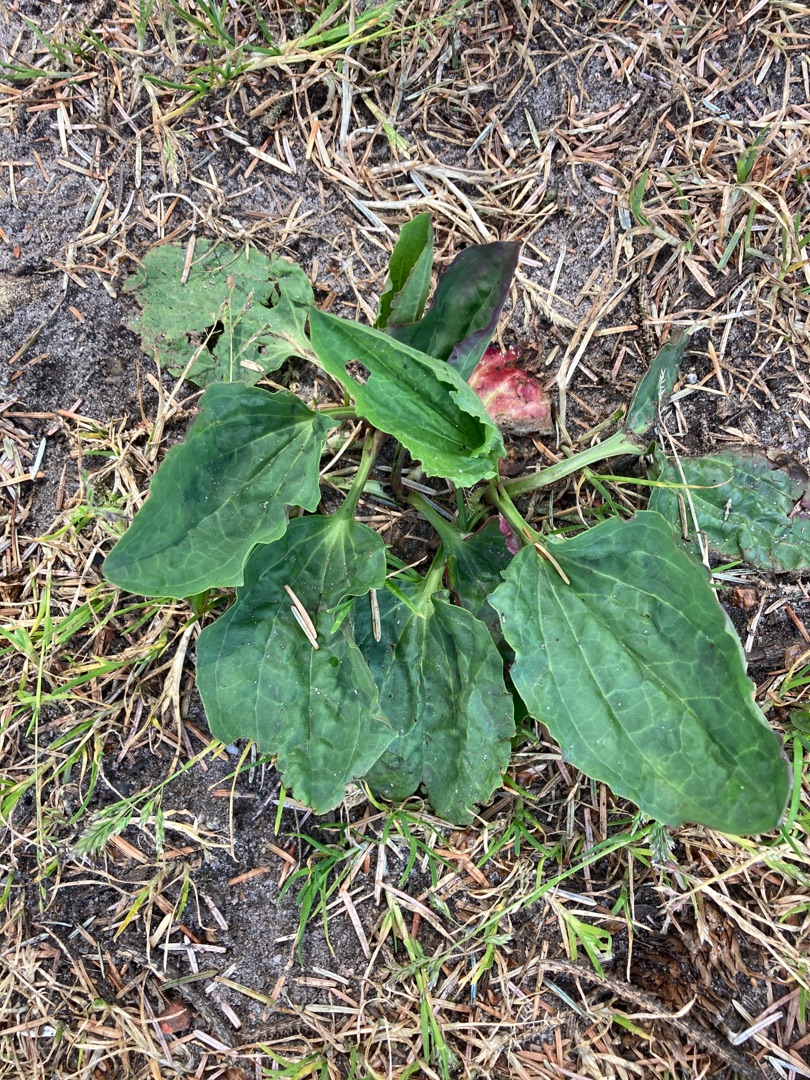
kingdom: Plantae
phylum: Tracheophyta
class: Magnoliopsida
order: Lamiales
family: Plantaginaceae
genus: Plantago
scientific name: Plantago major
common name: Glat vejbred
